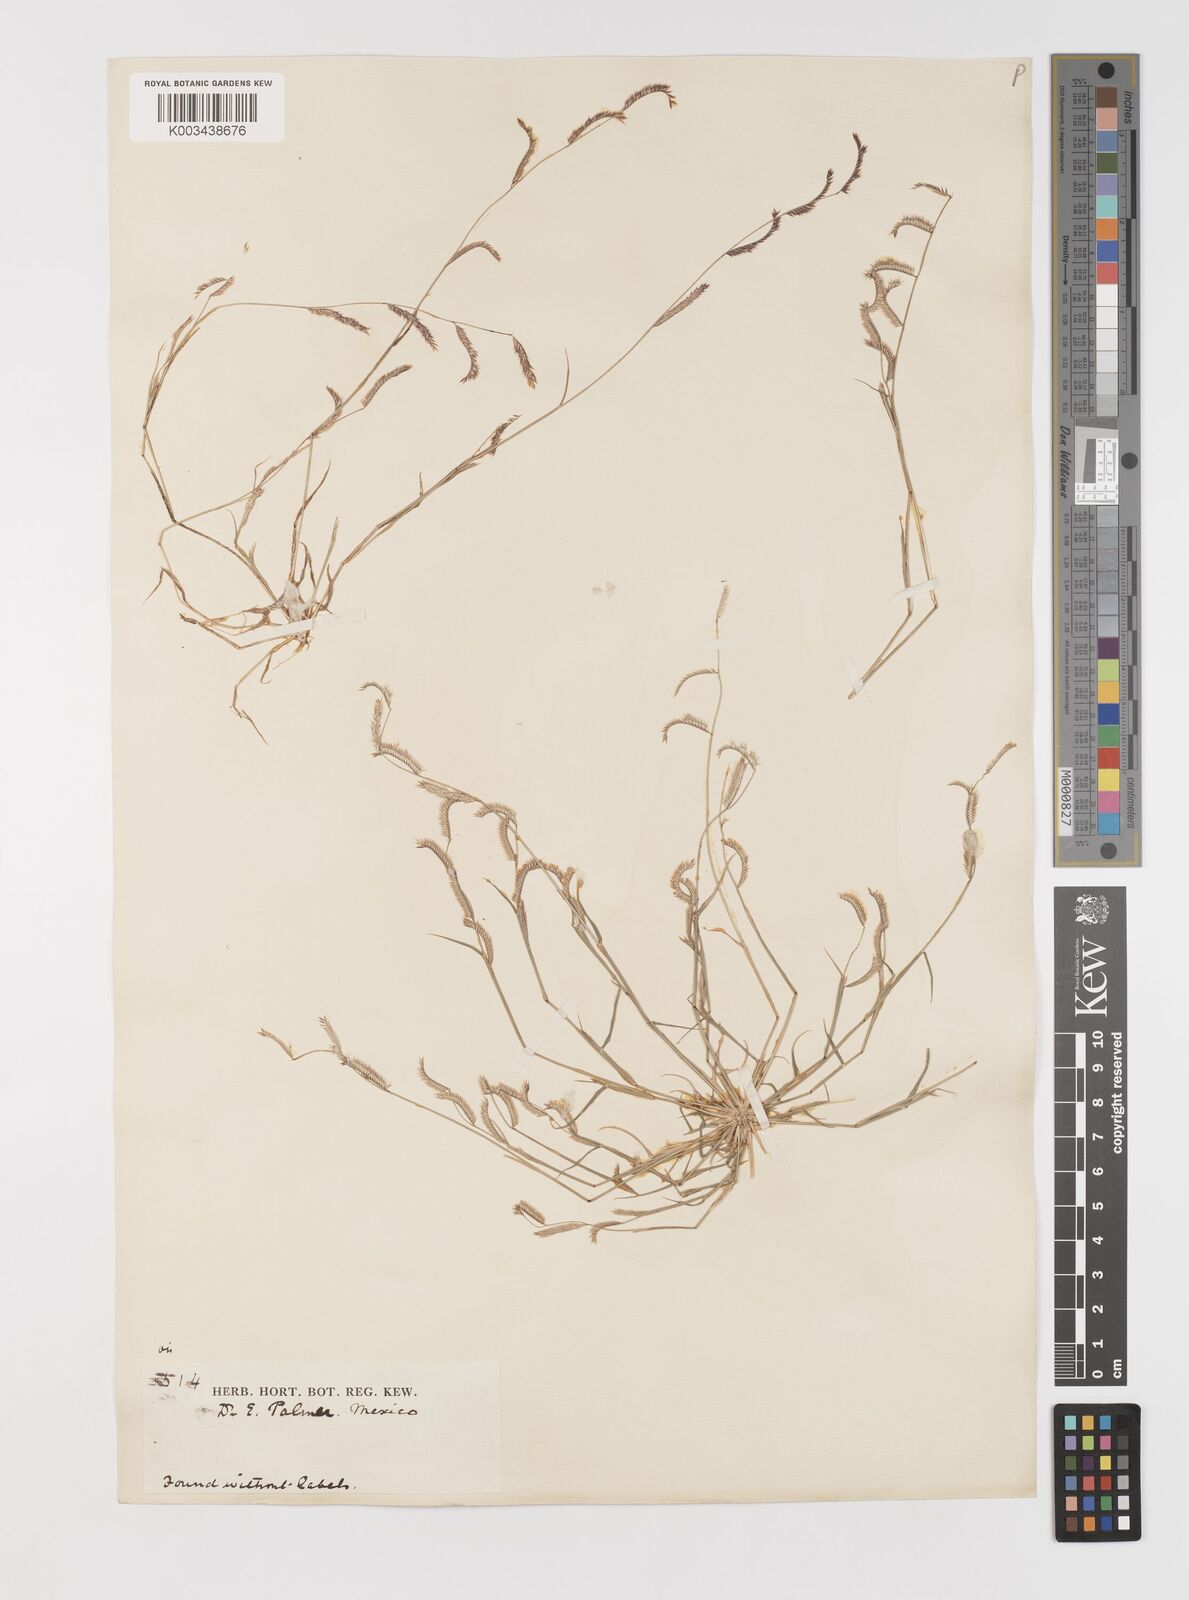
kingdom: Plantae
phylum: Tracheophyta
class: Liliopsida
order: Poales
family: Poaceae
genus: Bouteloua
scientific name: Bouteloua
